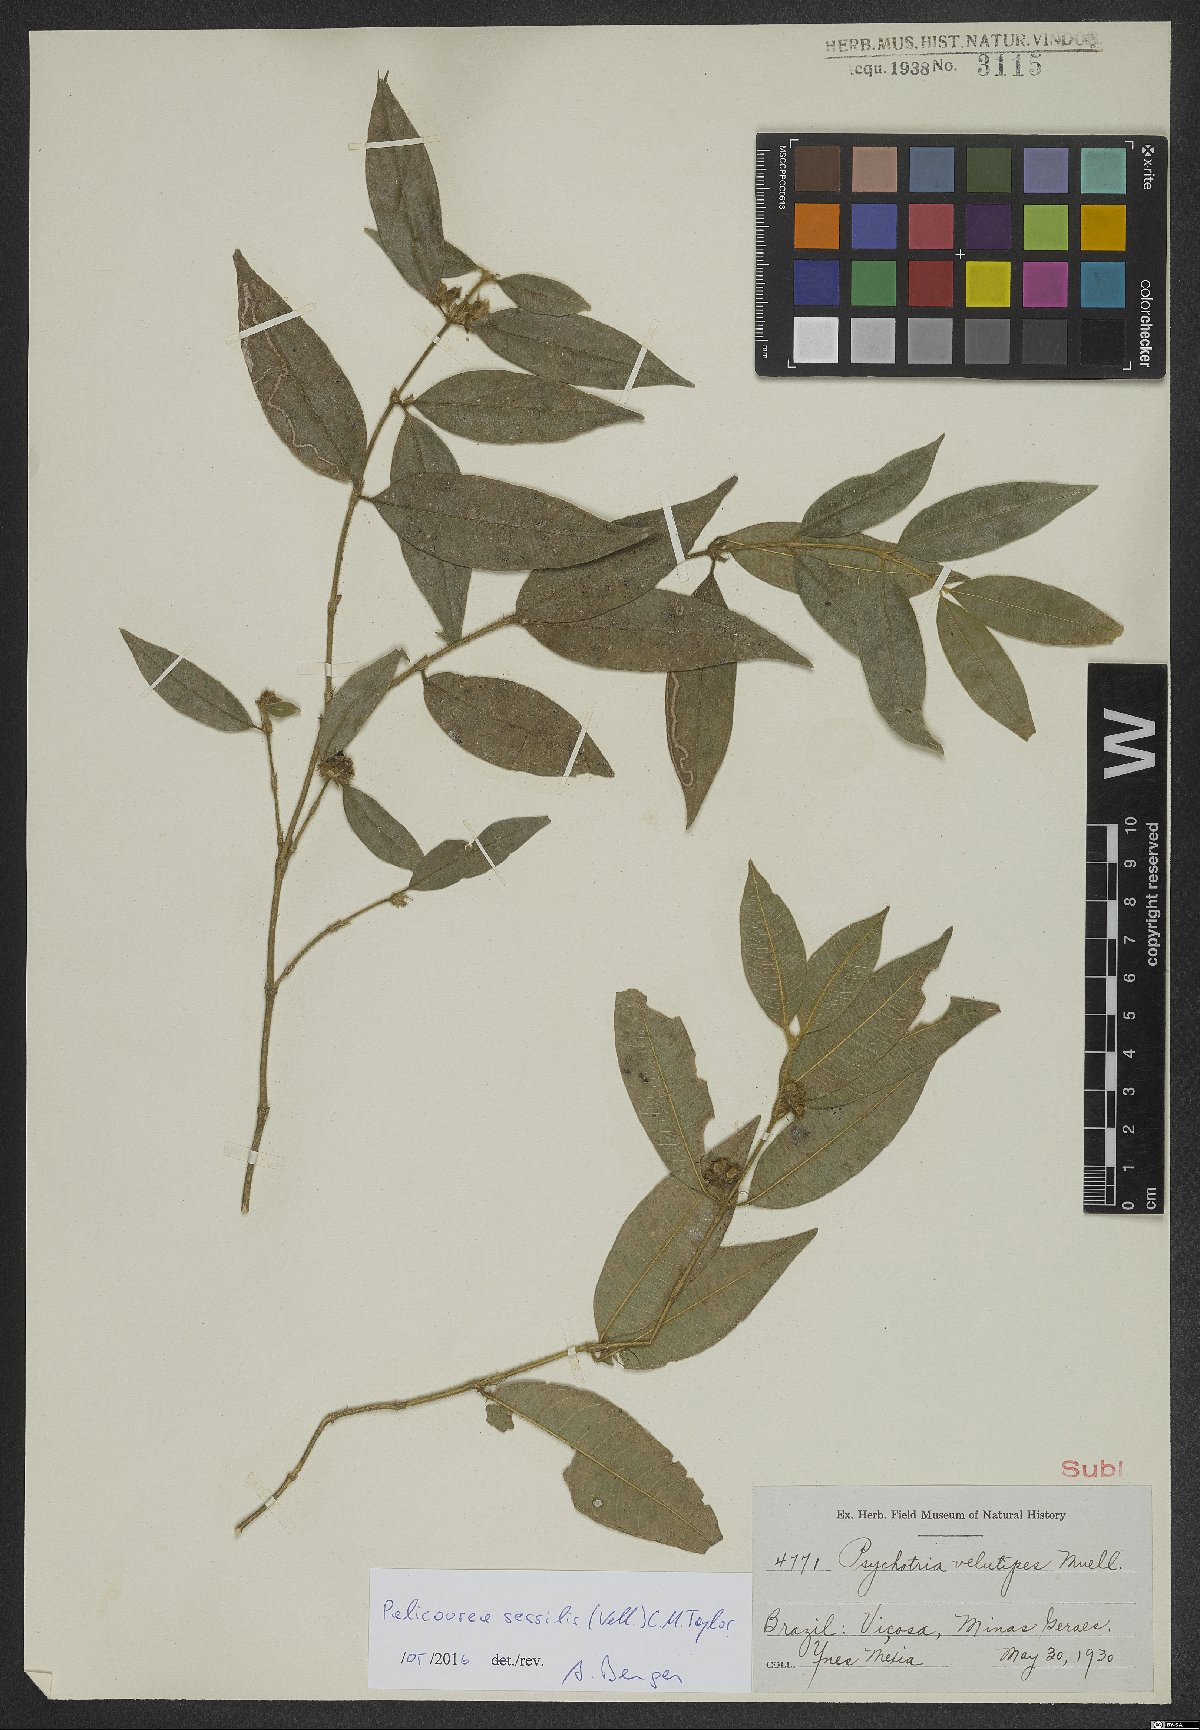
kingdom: Plantae
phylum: Tracheophyta
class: Magnoliopsida
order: Gentianales
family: Rubiaceae
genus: Palicourea
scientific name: Palicourea sessilis
